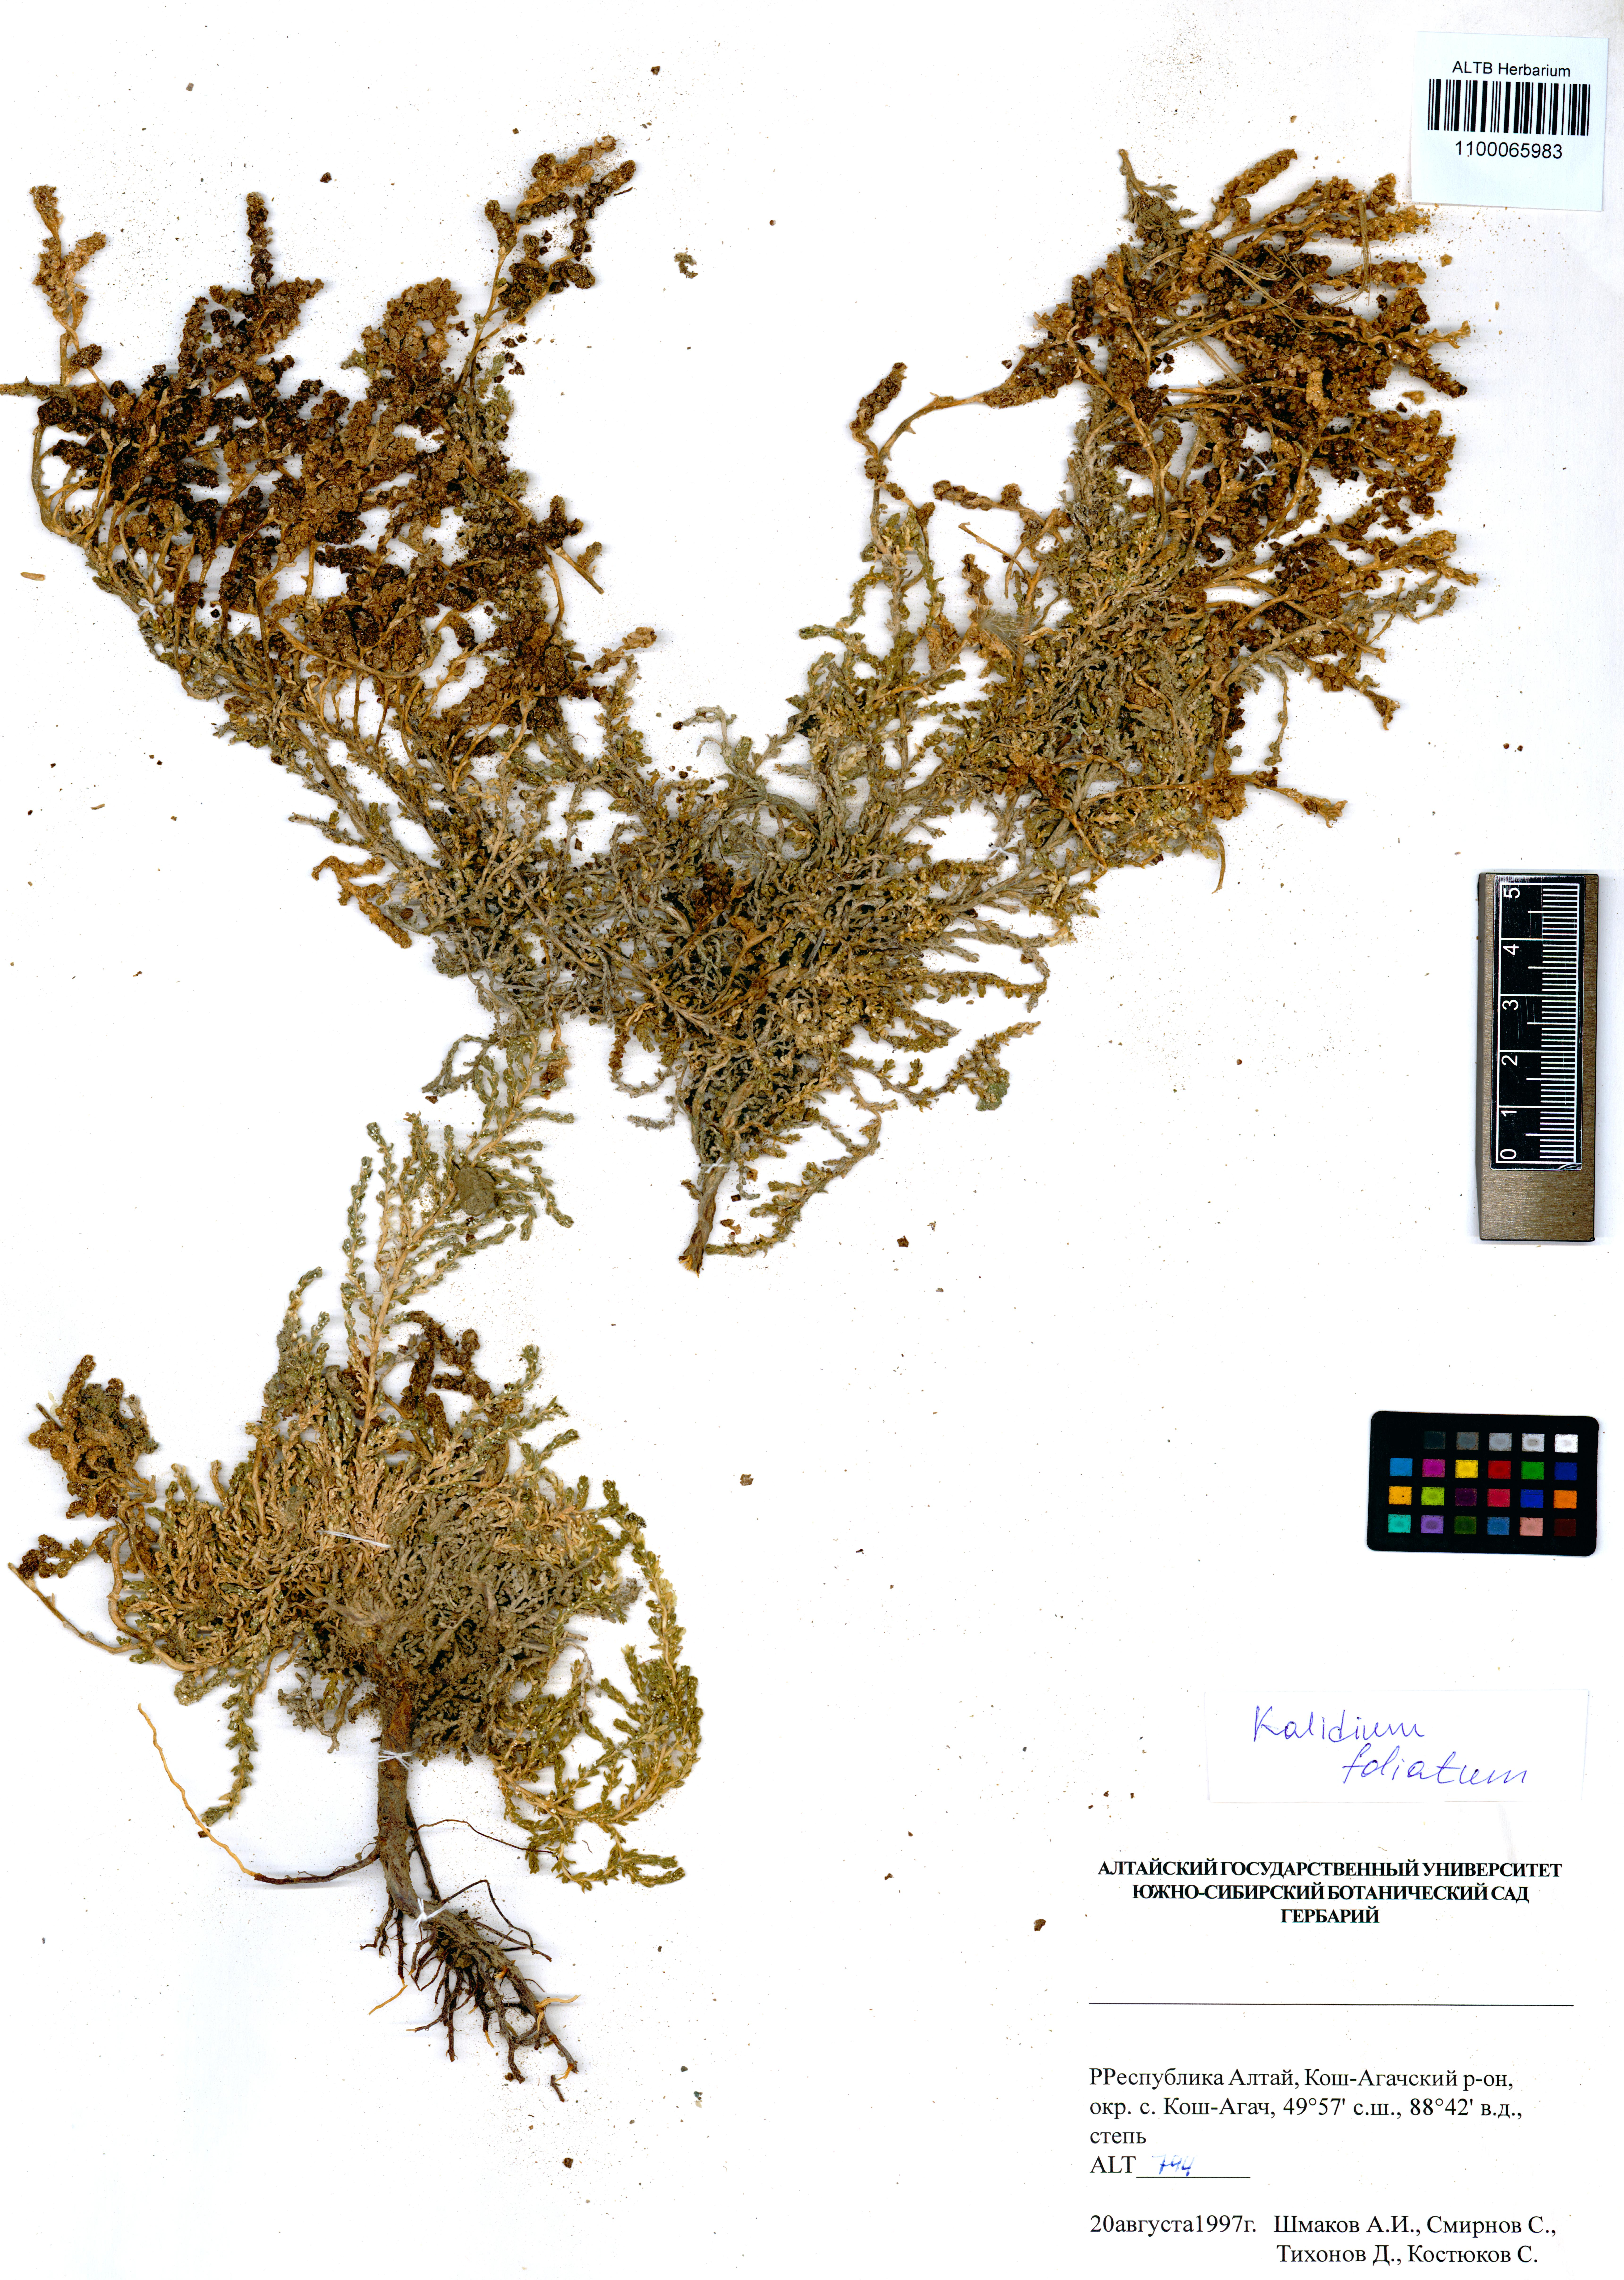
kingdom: Plantae
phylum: Tracheophyta
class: Magnoliopsida
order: Caryophyllales
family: Amaranthaceae
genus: Kalidium
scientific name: Kalidium foliatum
